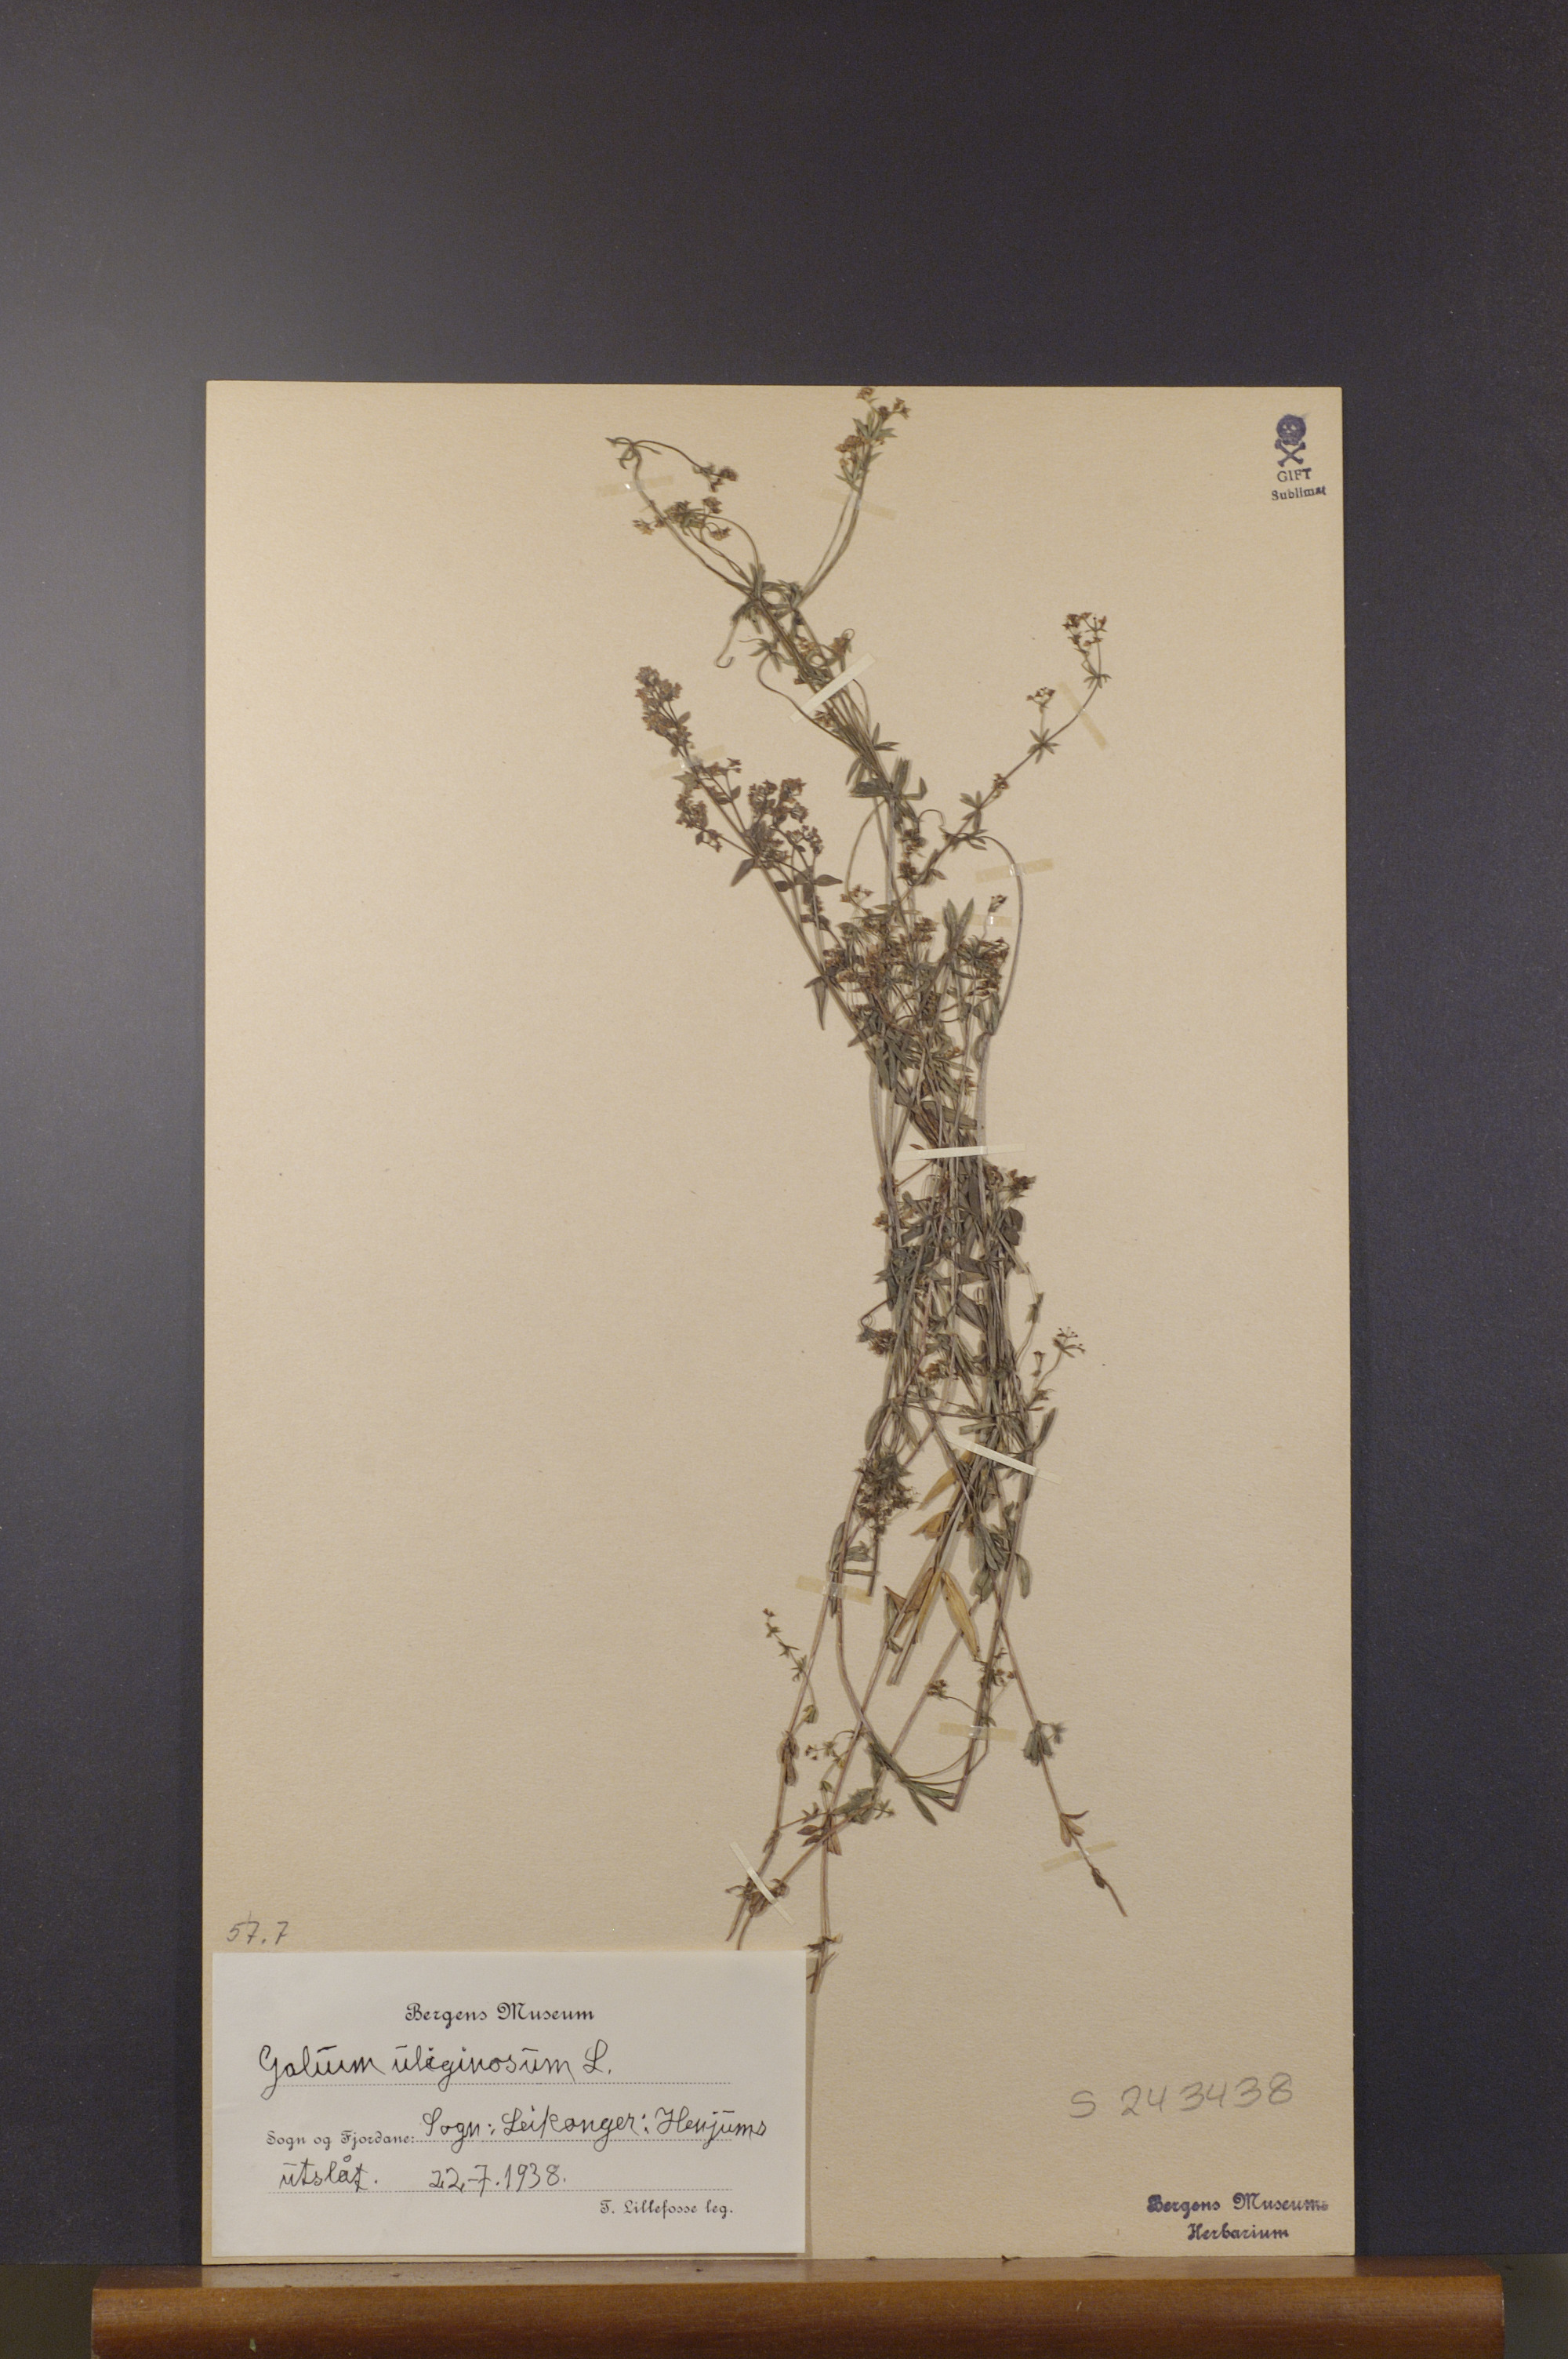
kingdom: Plantae
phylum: Tracheophyta
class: Magnoliopsida
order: Gentianales
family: Rubiaceae
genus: Galium
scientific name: Galium uliginosum
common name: Fen bedstraw
